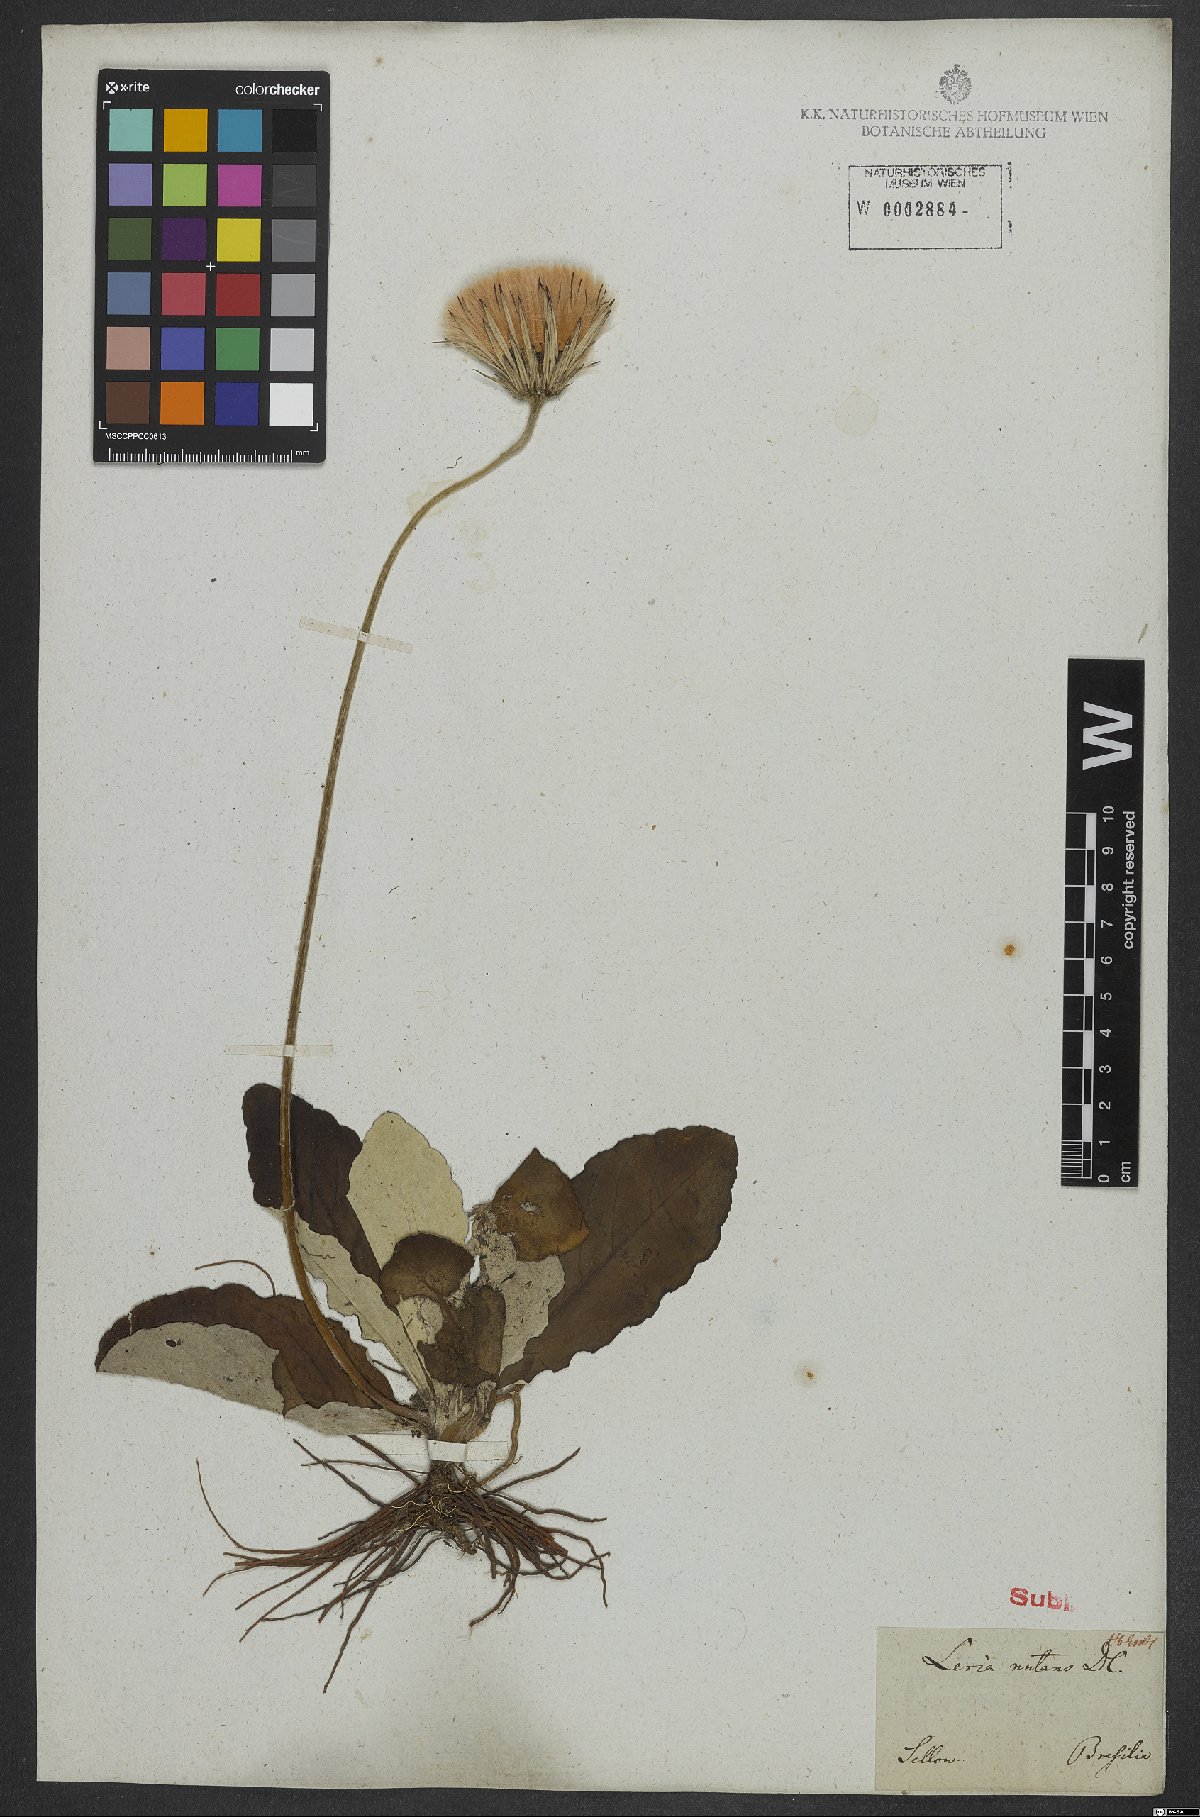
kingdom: Plantae
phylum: Tracheophyta
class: Magnoliopsida
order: Asterales
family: Asteraceae
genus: Chaptalia
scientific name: Chaptalia nutans
